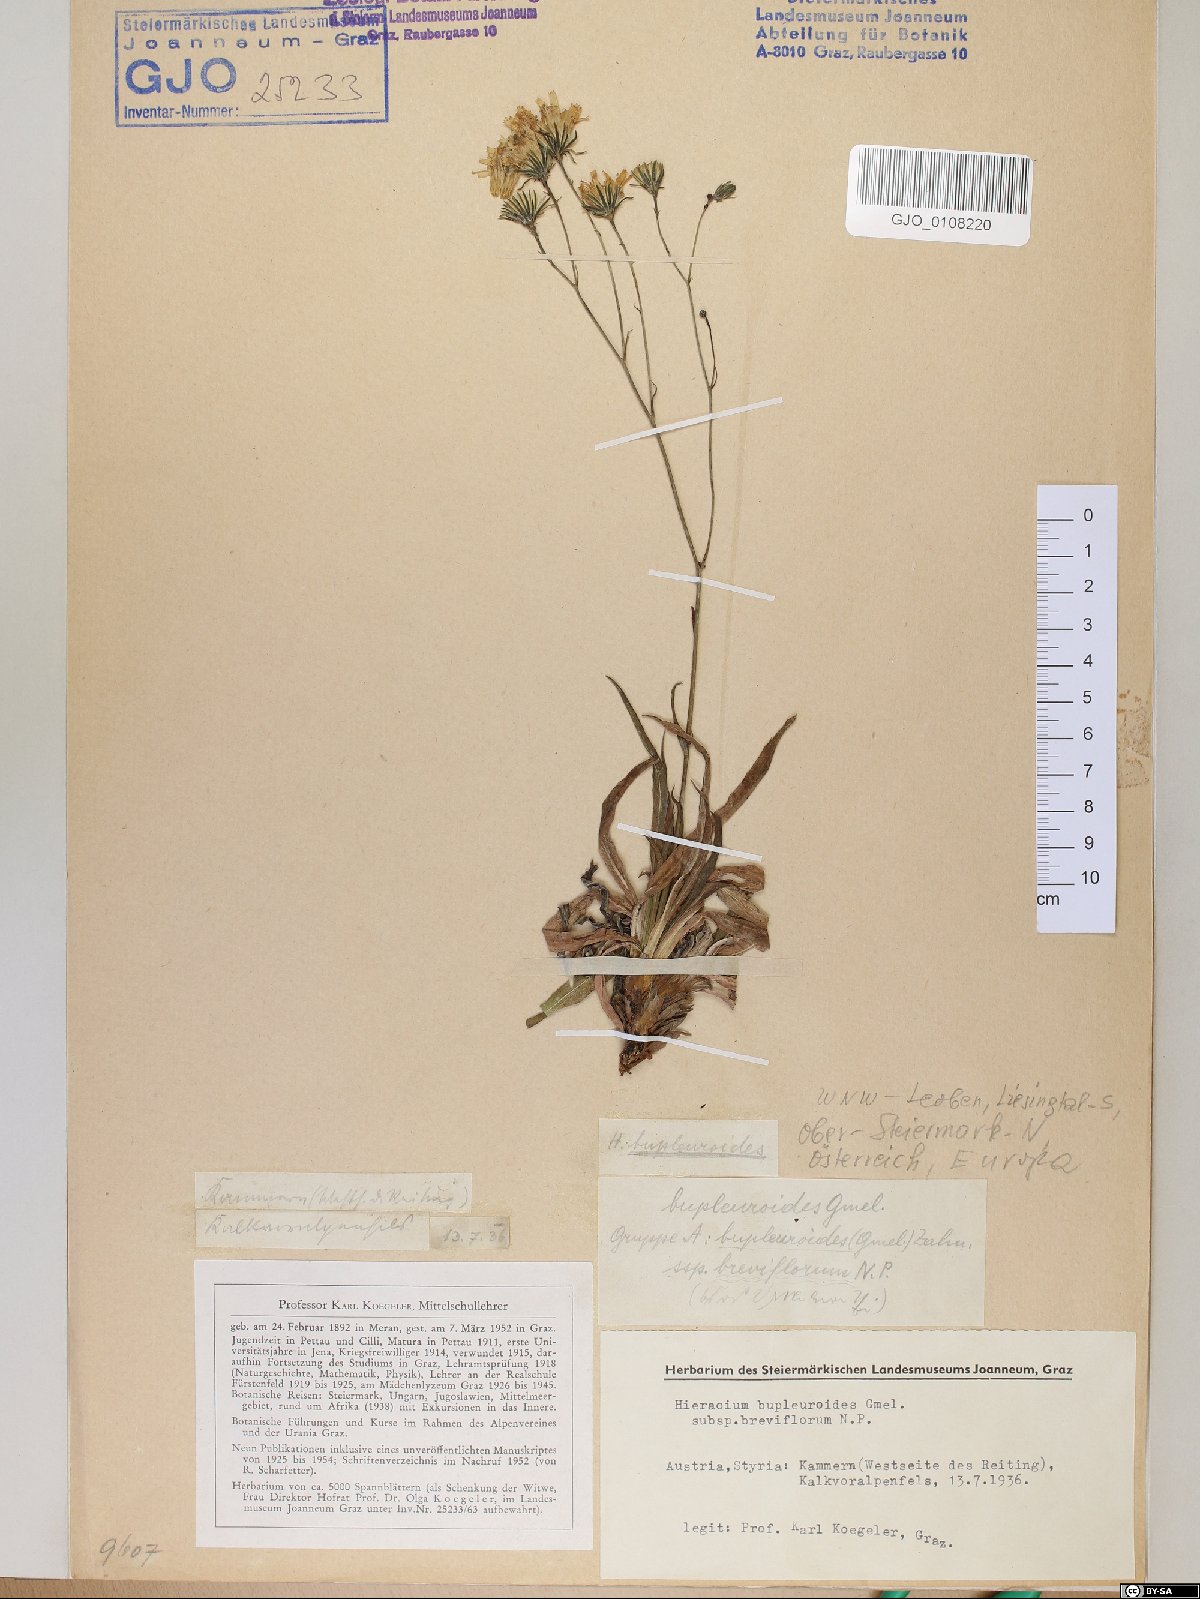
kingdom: Plantae
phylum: Tracheophyta
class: Magnoliopsida
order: Asterales
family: Asteraceae
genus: Hieracium
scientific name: Hieracium bupleuroides
